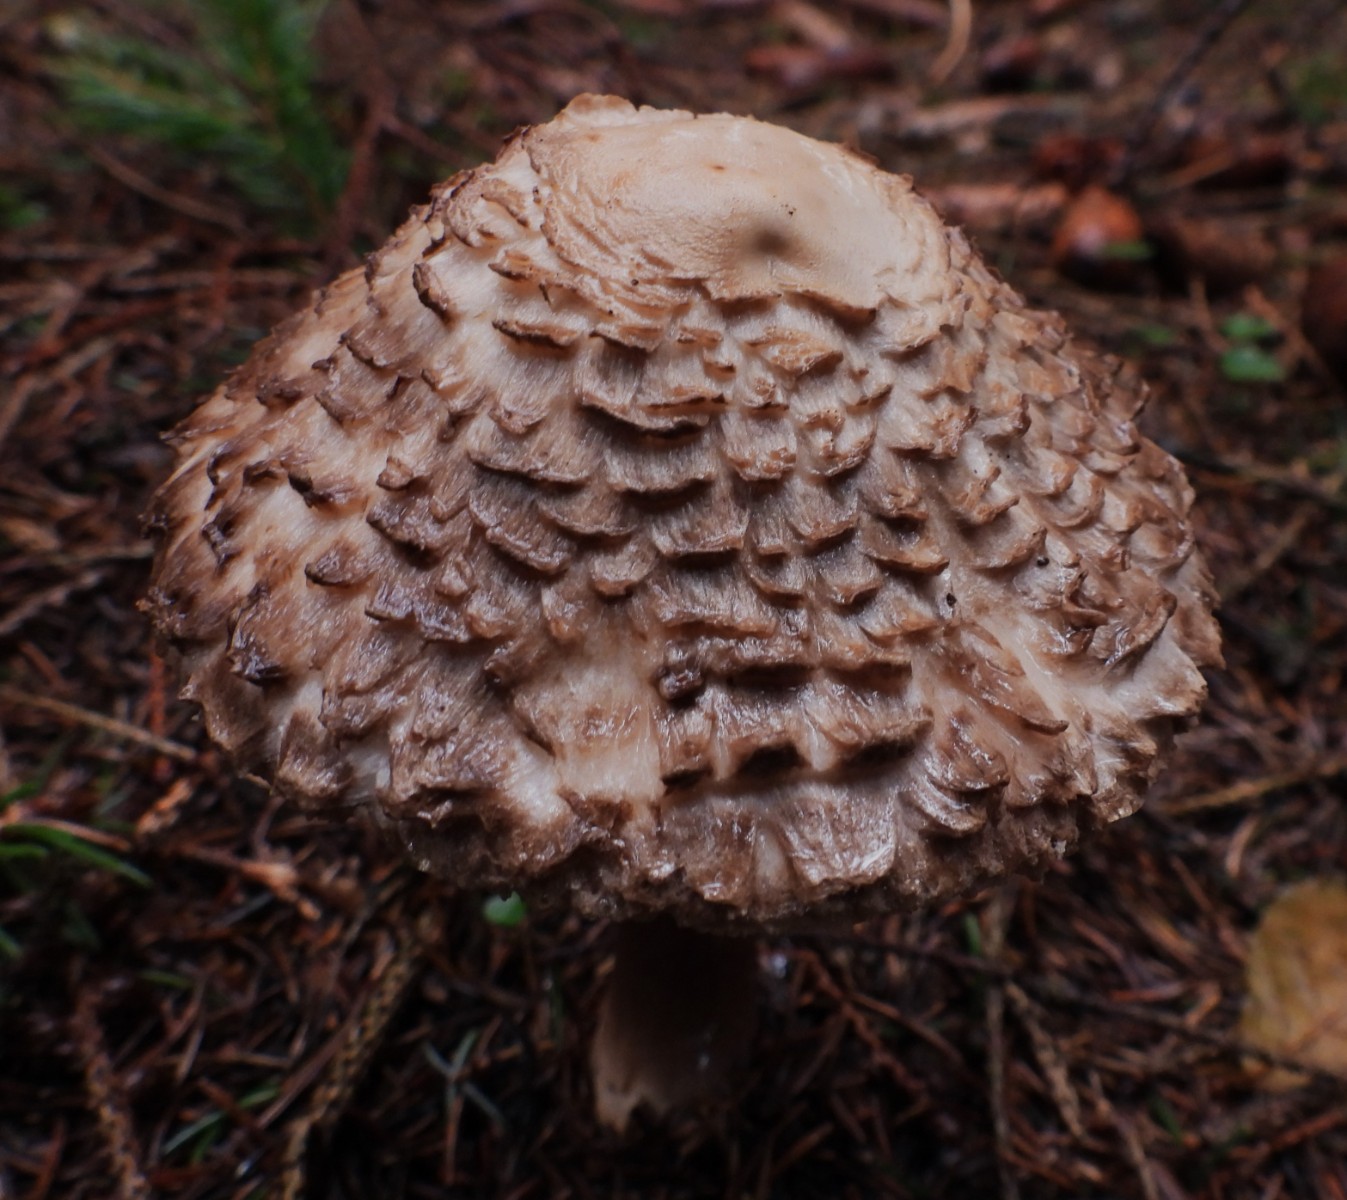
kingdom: Fungi
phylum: Basidiomycota
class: Agaricomycetes
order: Agaricales
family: Agaricaceae
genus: Chlorophyllum
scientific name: Chlorophyllum olivieri
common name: almindelig rabarberhat
